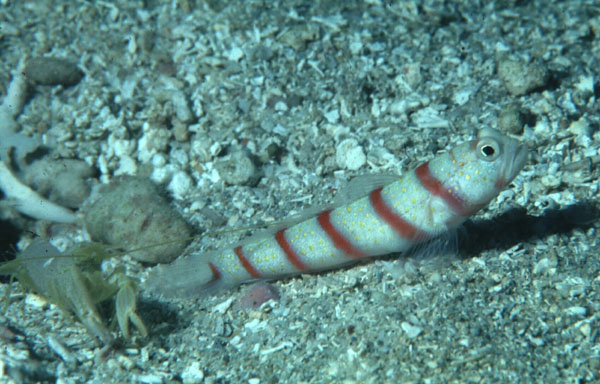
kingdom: Animalia
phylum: Chordata
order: Perciformes
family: Gobiidae
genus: Amblyeleotris
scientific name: Amblyeleotris fasciata
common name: Red-banded prawn-goby
